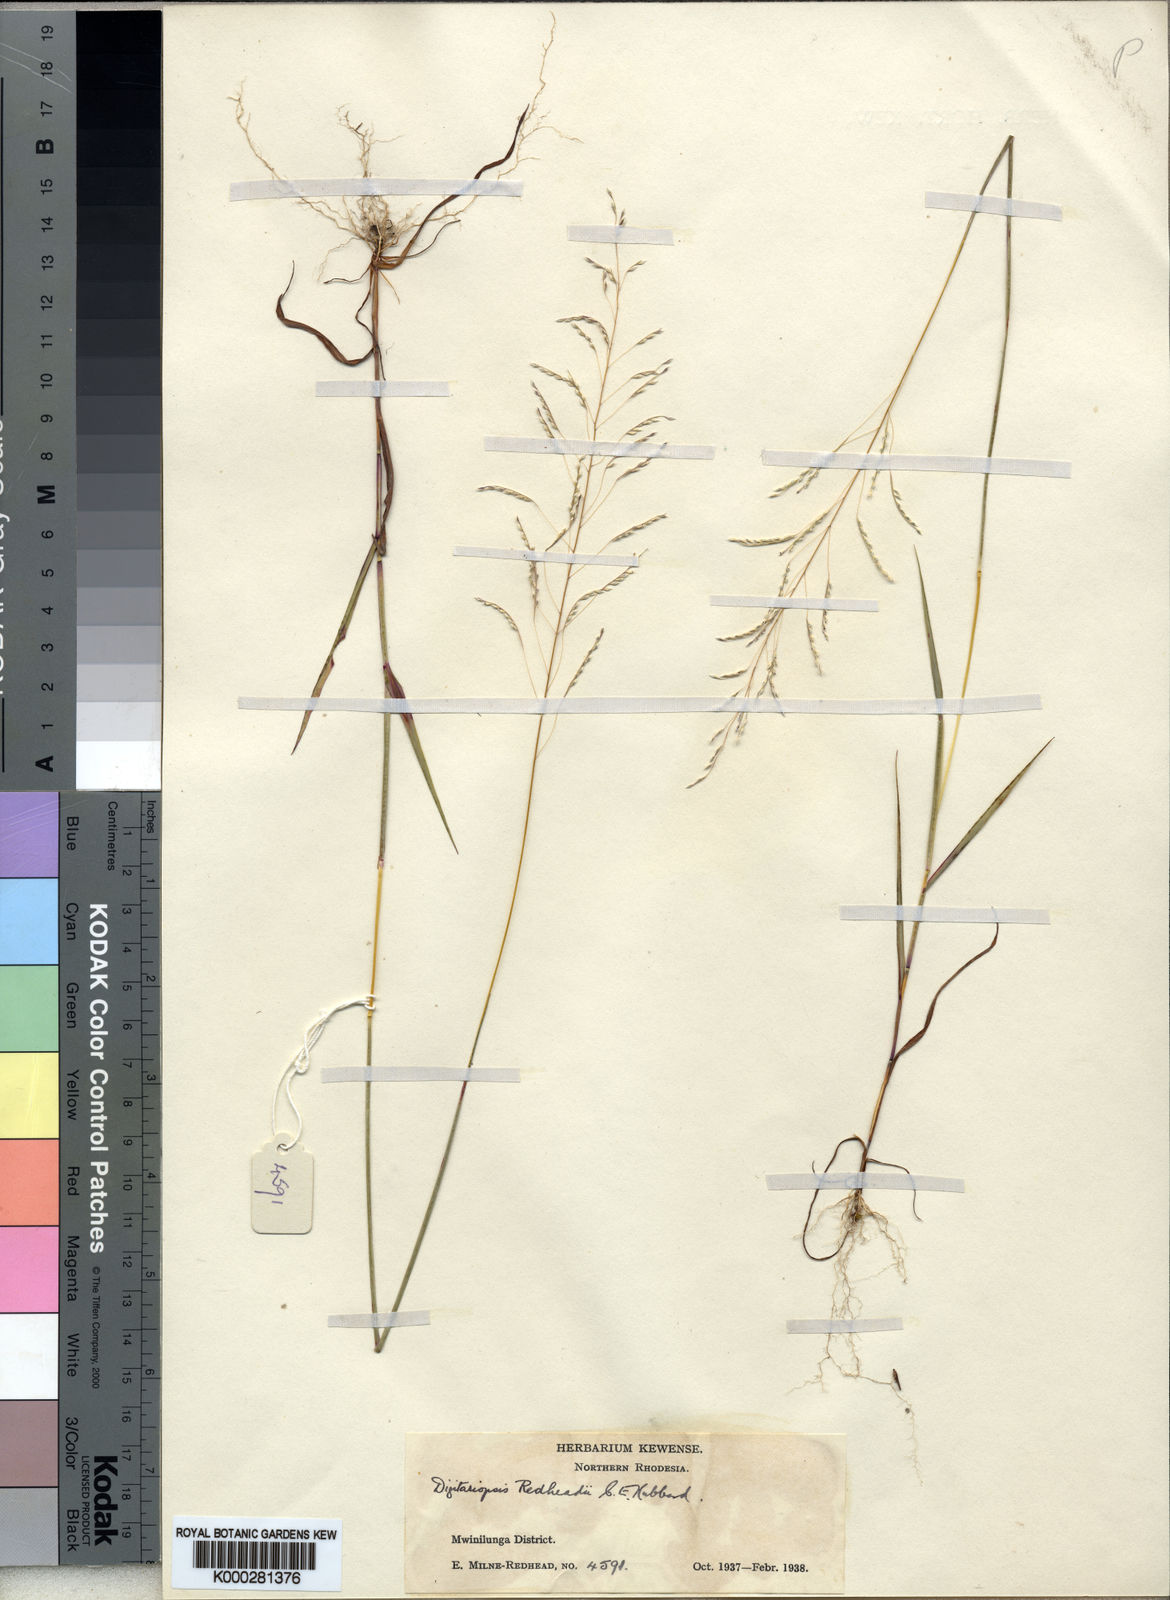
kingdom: Plantae
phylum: Tracheophyta
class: Liliopsida
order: Poales
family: Poaceae
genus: Digitaria
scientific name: Digitaria redheadii
